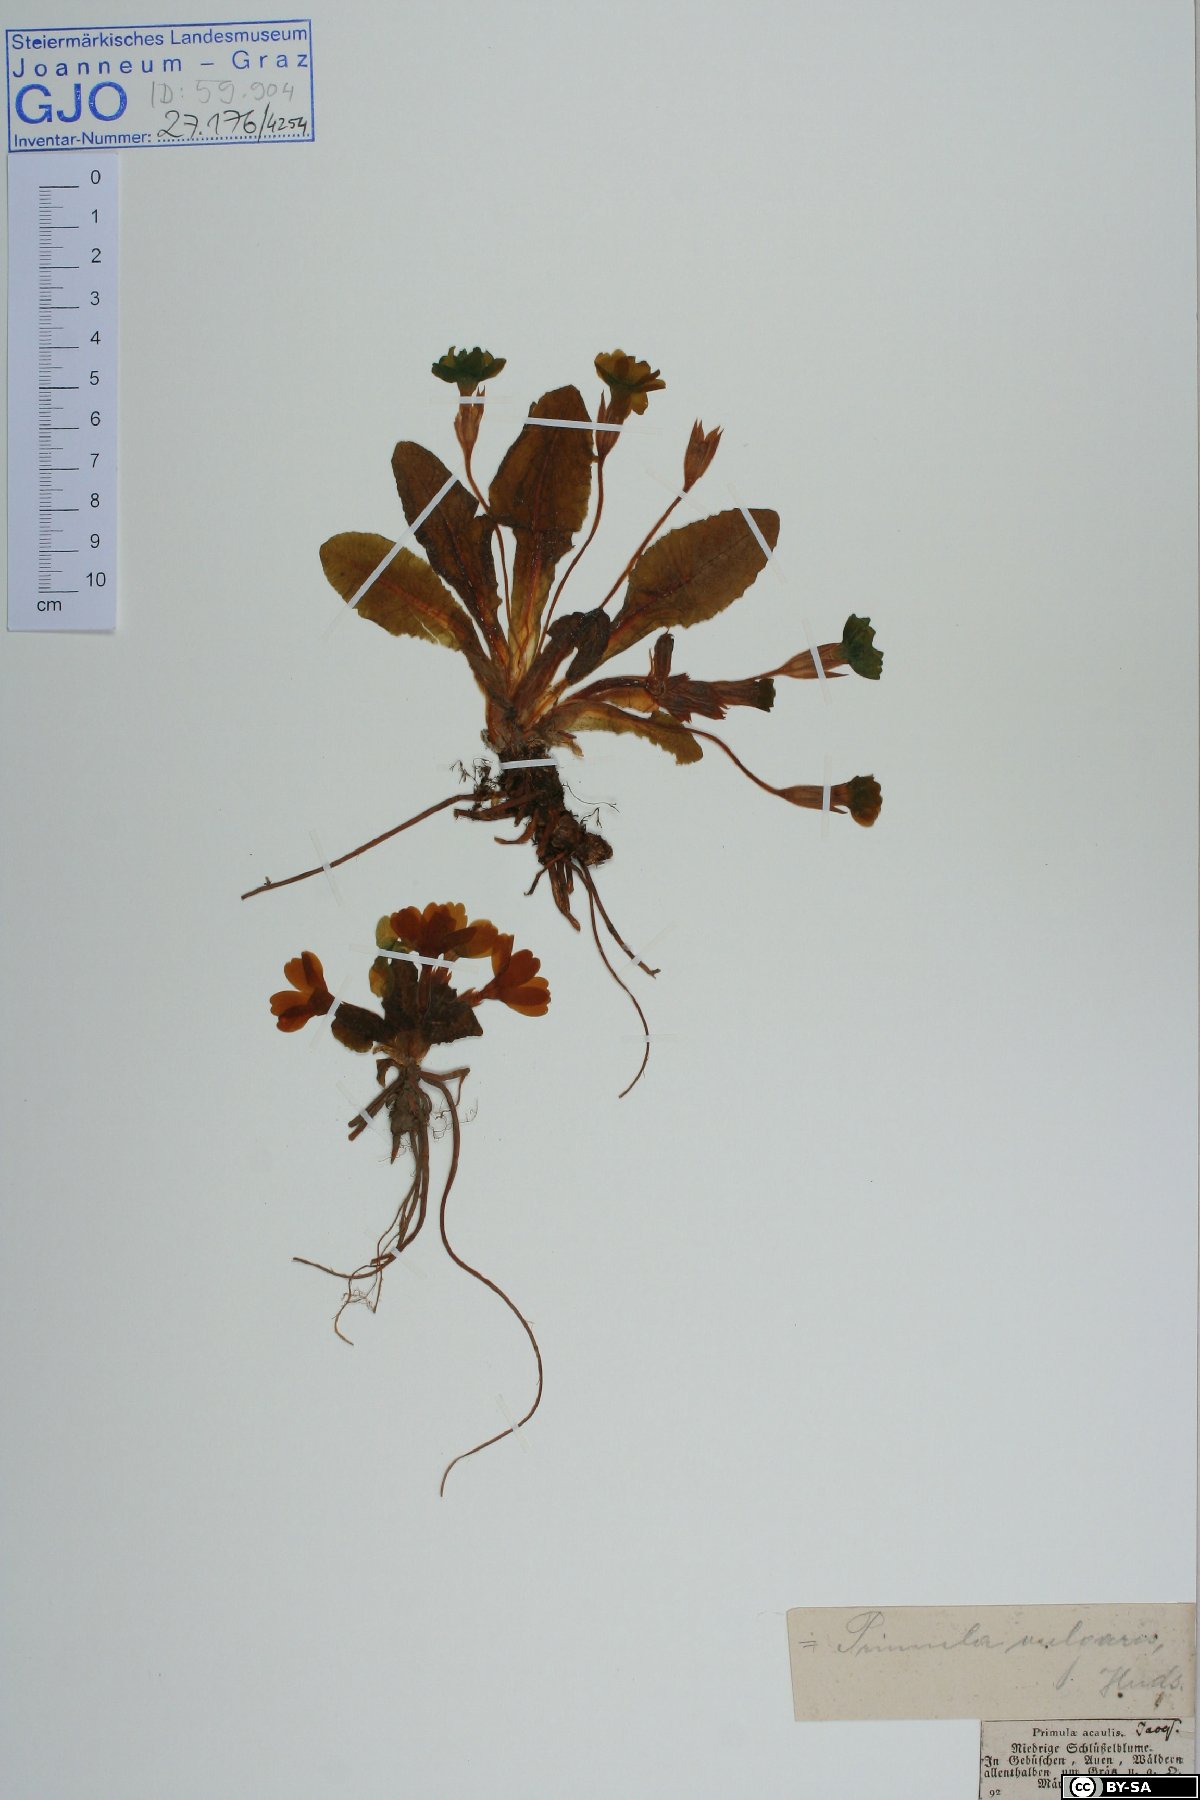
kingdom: Plantae
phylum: Tracheophyta
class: Magnoliopsida
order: Ericales
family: Primulaceae
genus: Primula
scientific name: Primula vulgaris
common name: Primrose
